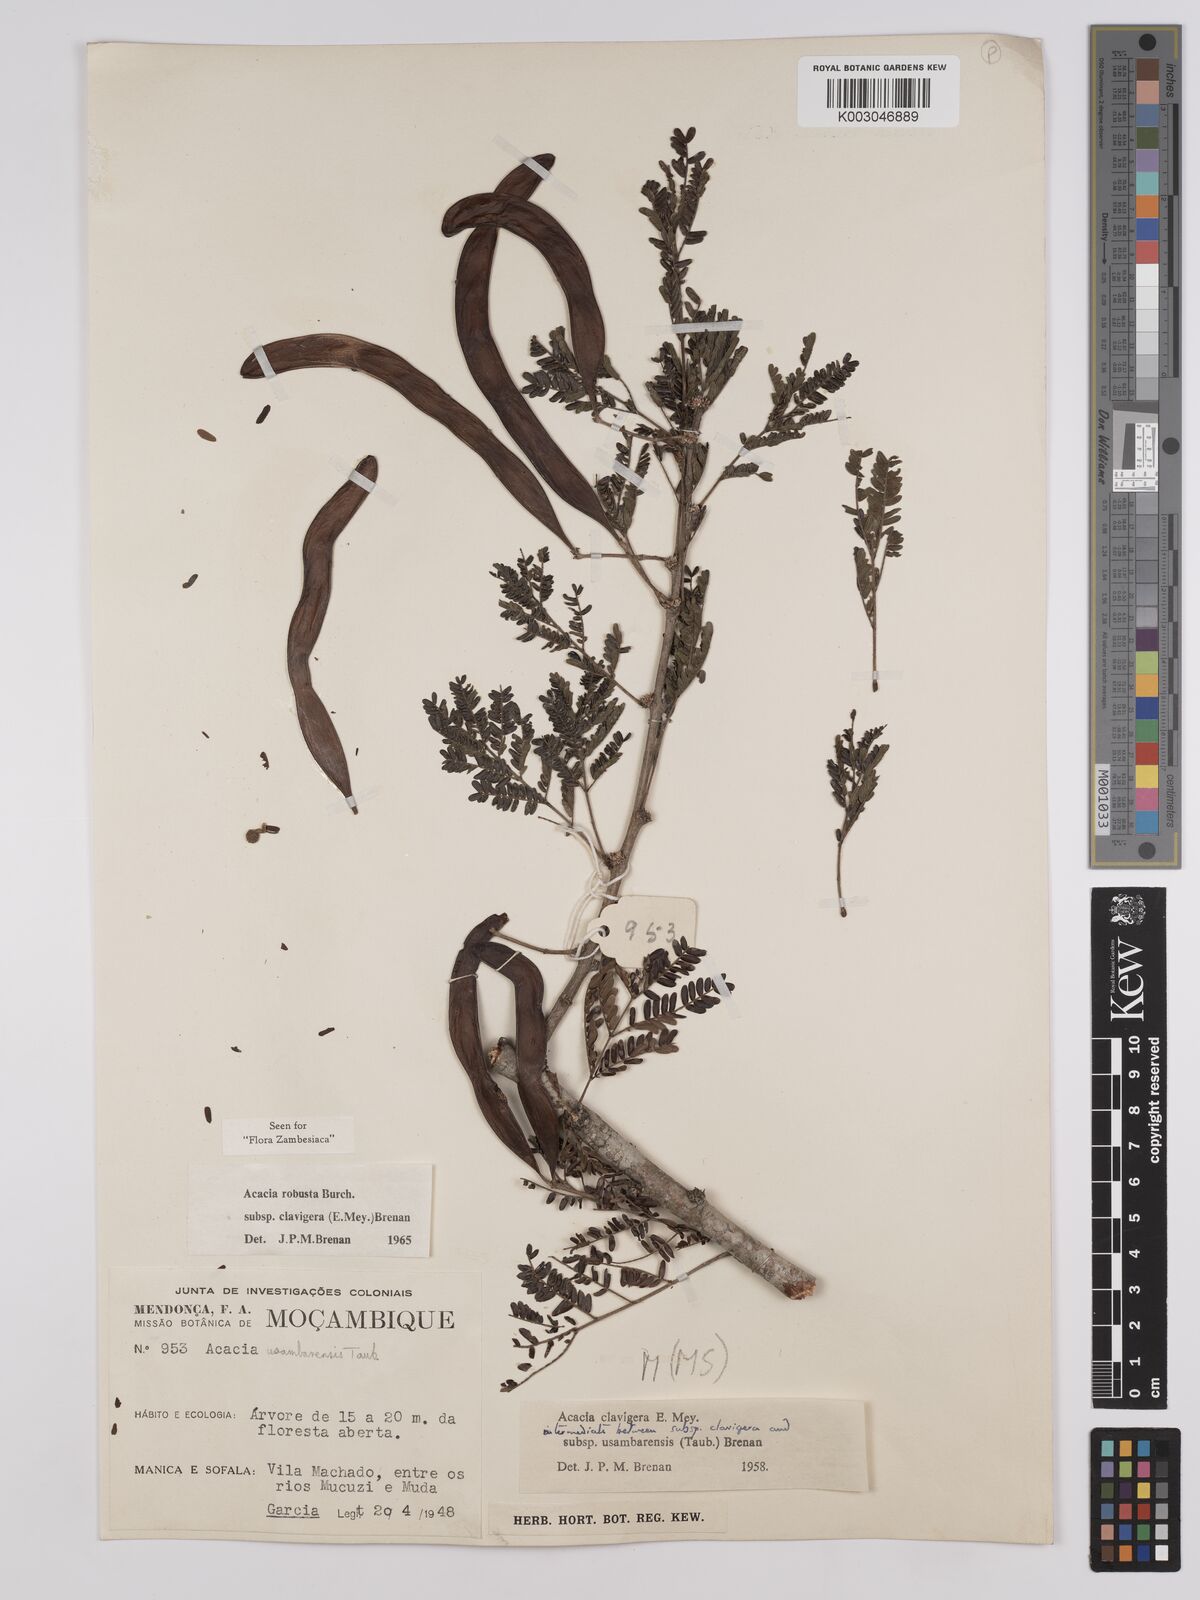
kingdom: Plantae
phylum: Tracheophyta
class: Magnoliopsida
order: Fabales
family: Fabaceae
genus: Vachellia
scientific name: Vachellia robusta
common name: Ankle thorn
